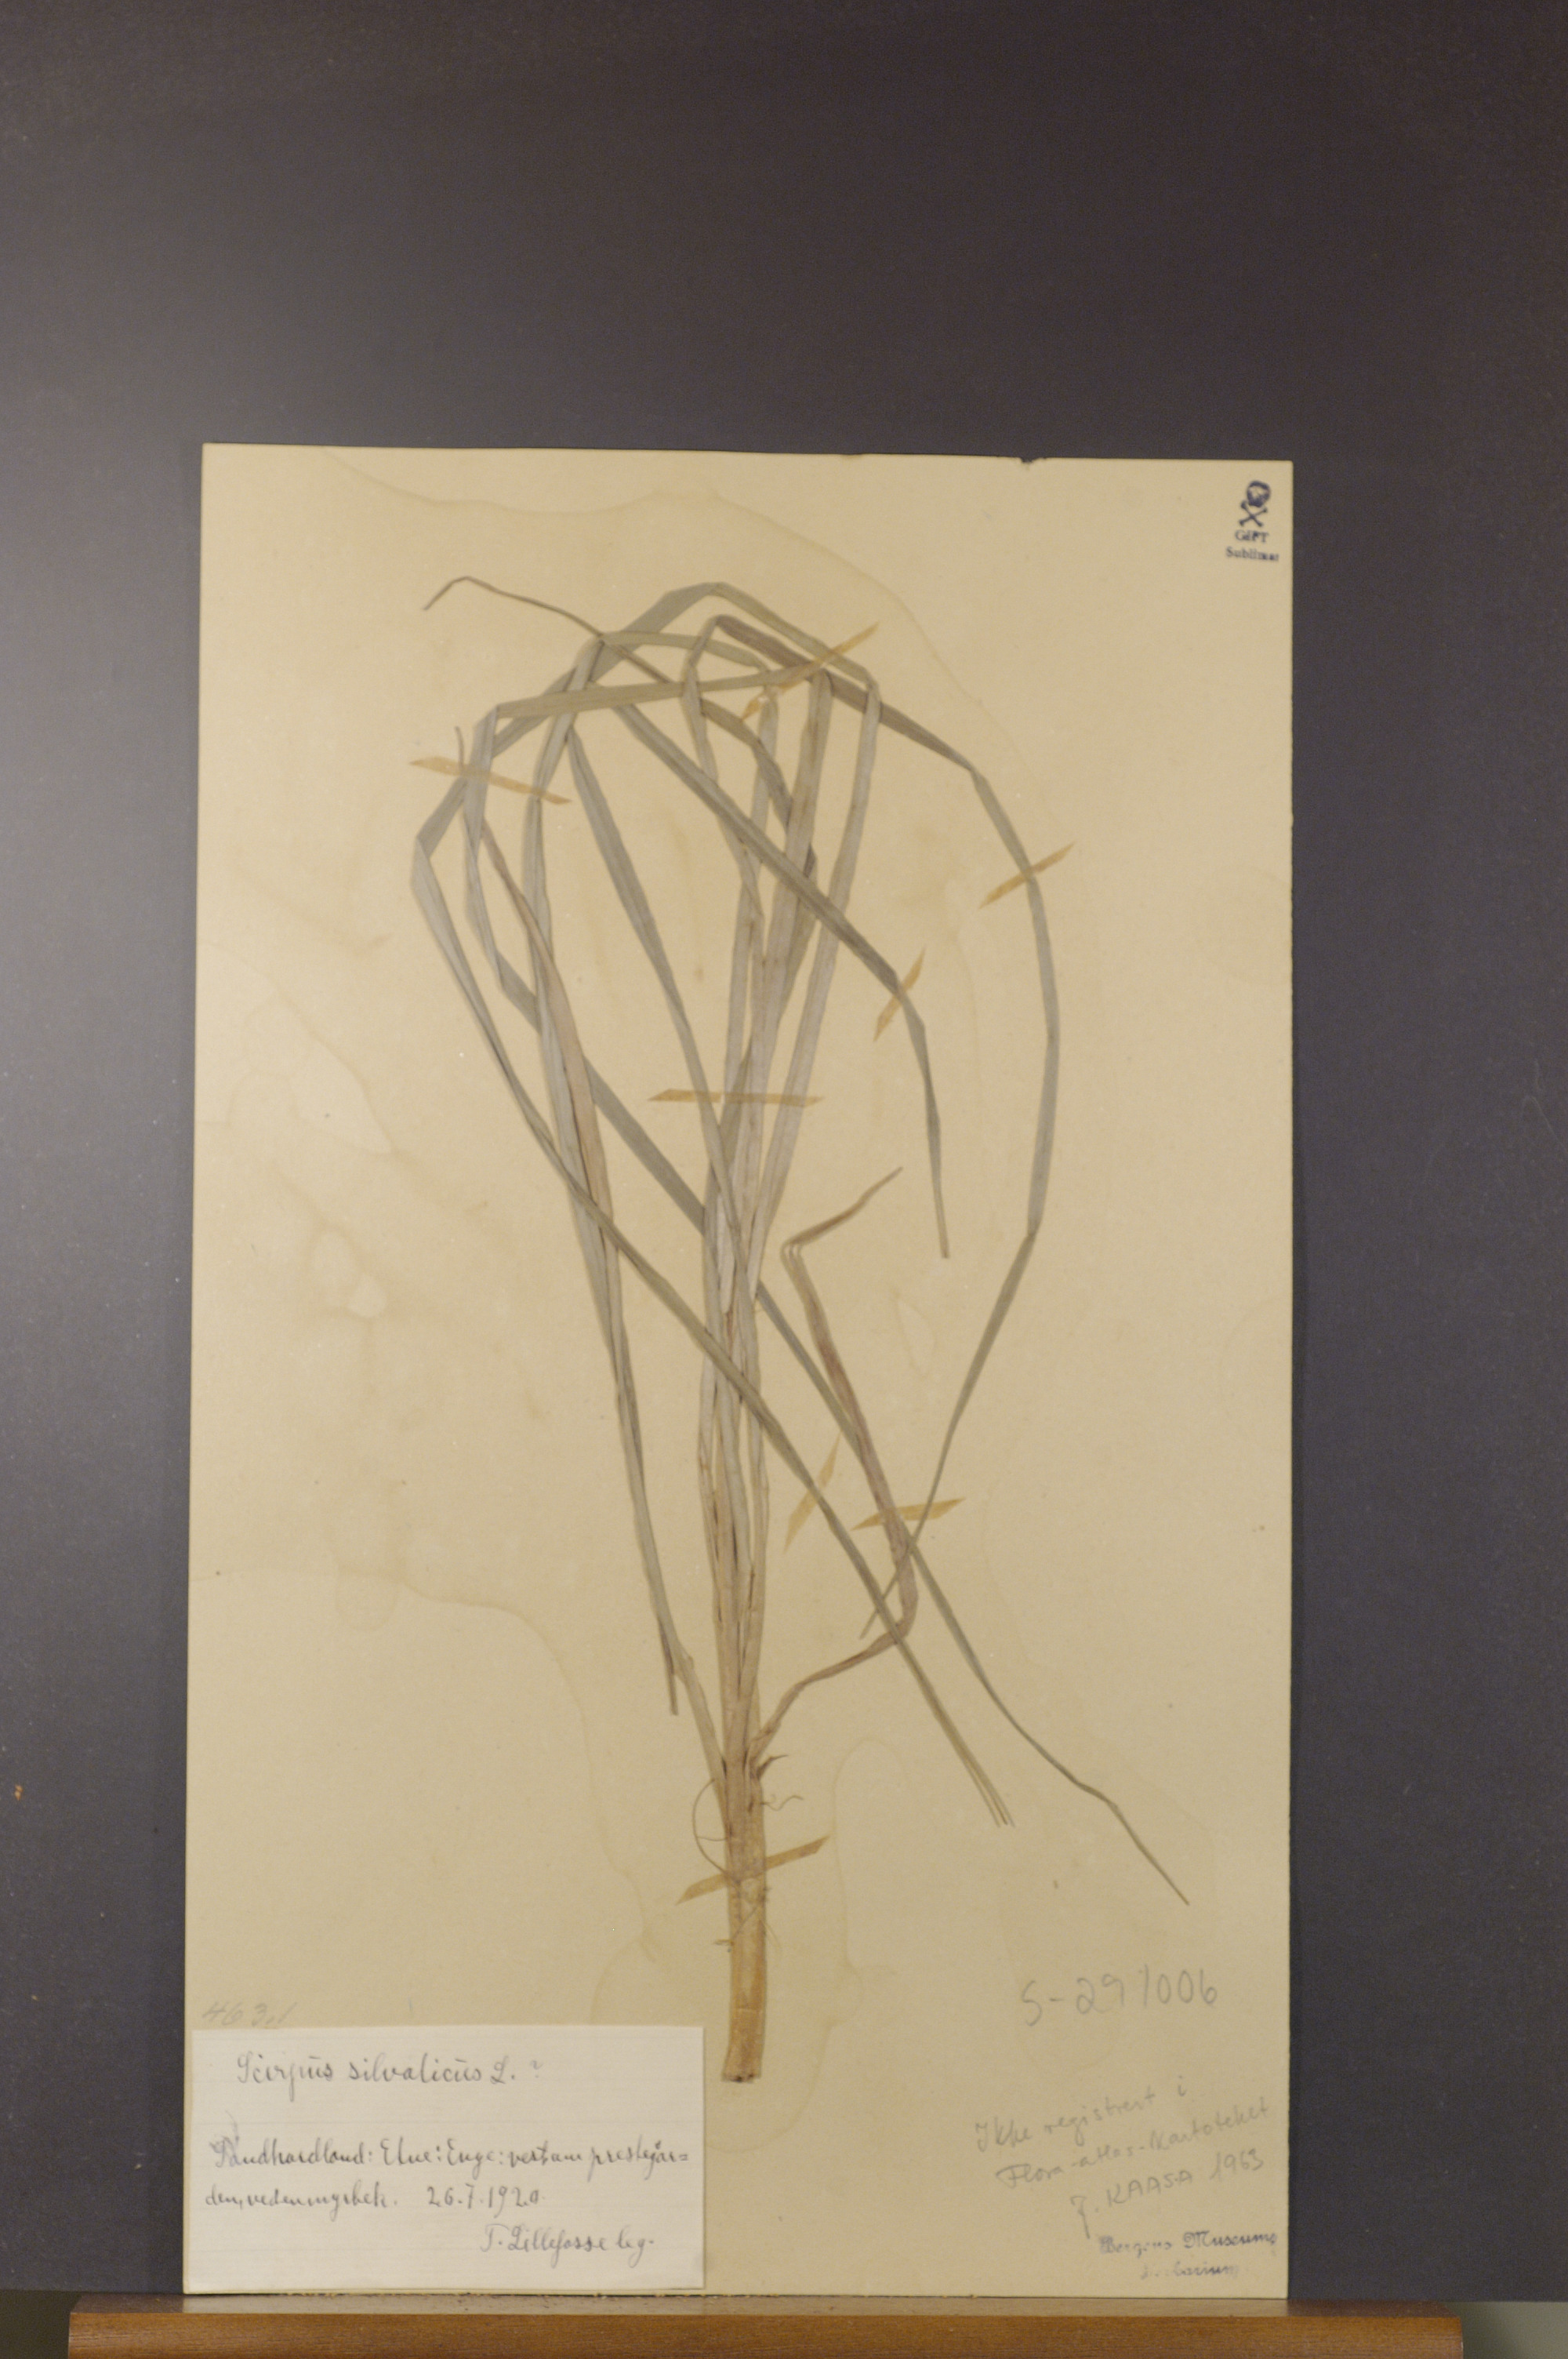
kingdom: Plantae
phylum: Tracheophyta
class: Liliopsida
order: Poales
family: Cyperaceae
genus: Scirpus
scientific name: Scirpus sylvaticus
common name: Wood club-rush
